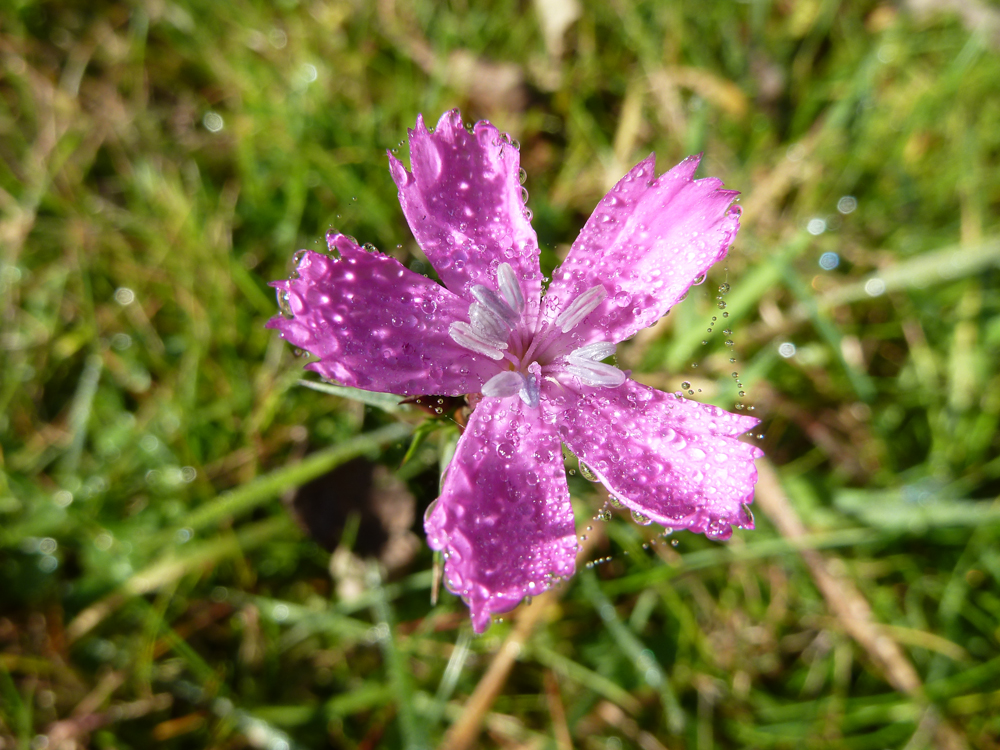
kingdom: Plantae
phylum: Tracheophyta
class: Magnoliopsida
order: Caryophyllales
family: Caryophyllaceae
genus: Dianthus
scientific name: Dianthus carthusianorum
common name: Carthusian pink
